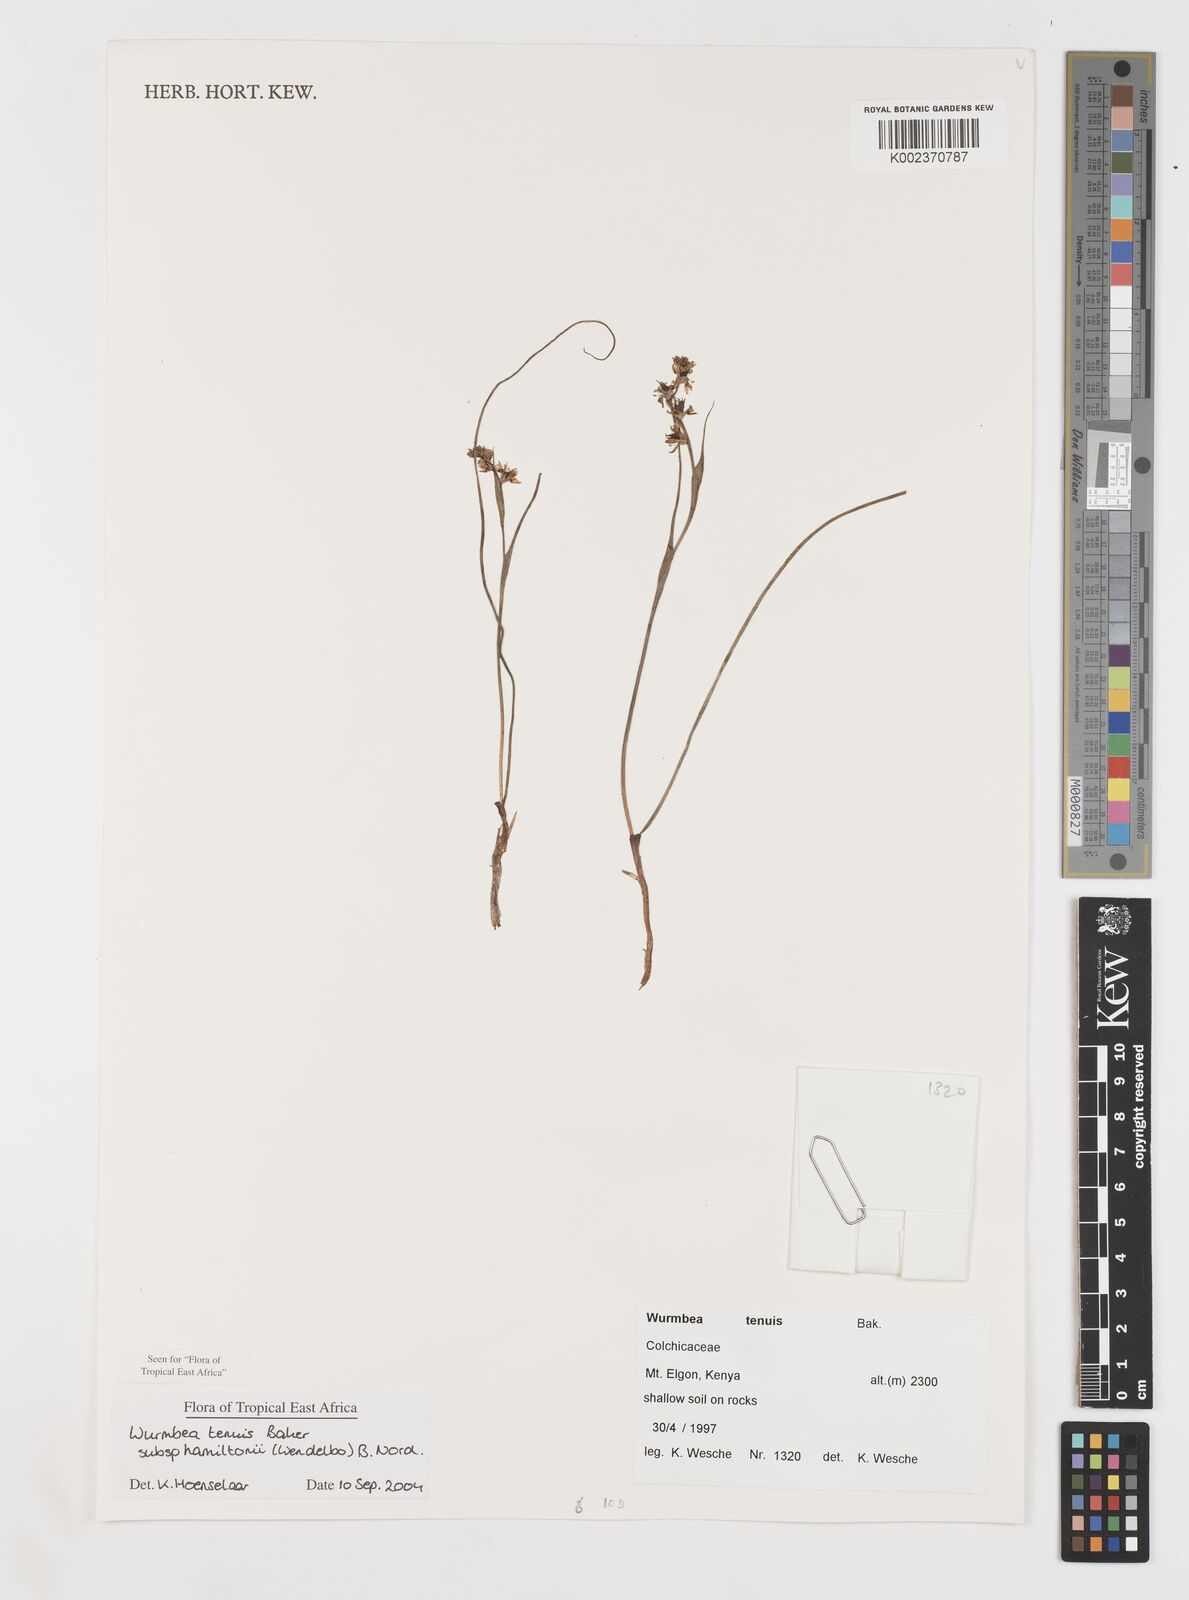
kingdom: Plantae
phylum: Tracheophyta
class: Liliopsida
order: Liliales
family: Colchicaceae
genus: Wurmbea
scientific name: Wurmbea tenuis
